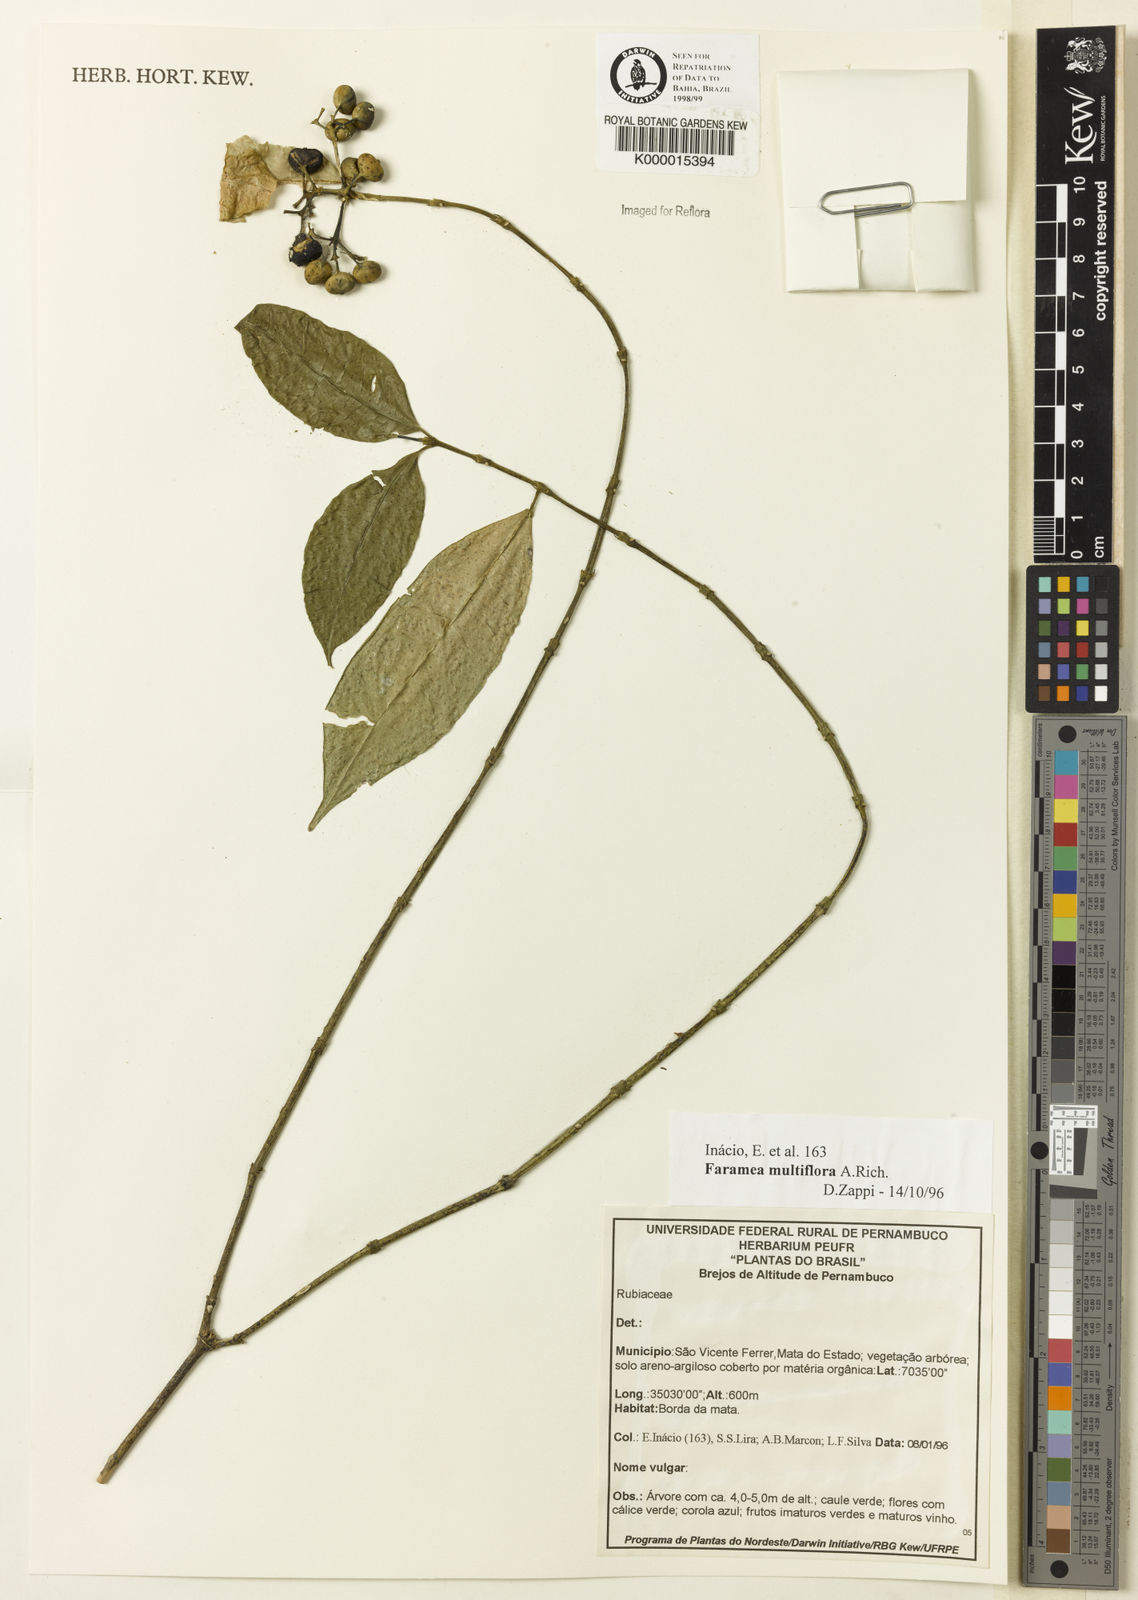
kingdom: Plantae
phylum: Tracheophyta
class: Magnoliopsida
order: Gentianales
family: Rubiaceae
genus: Faramea
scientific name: Faramea multiflora
